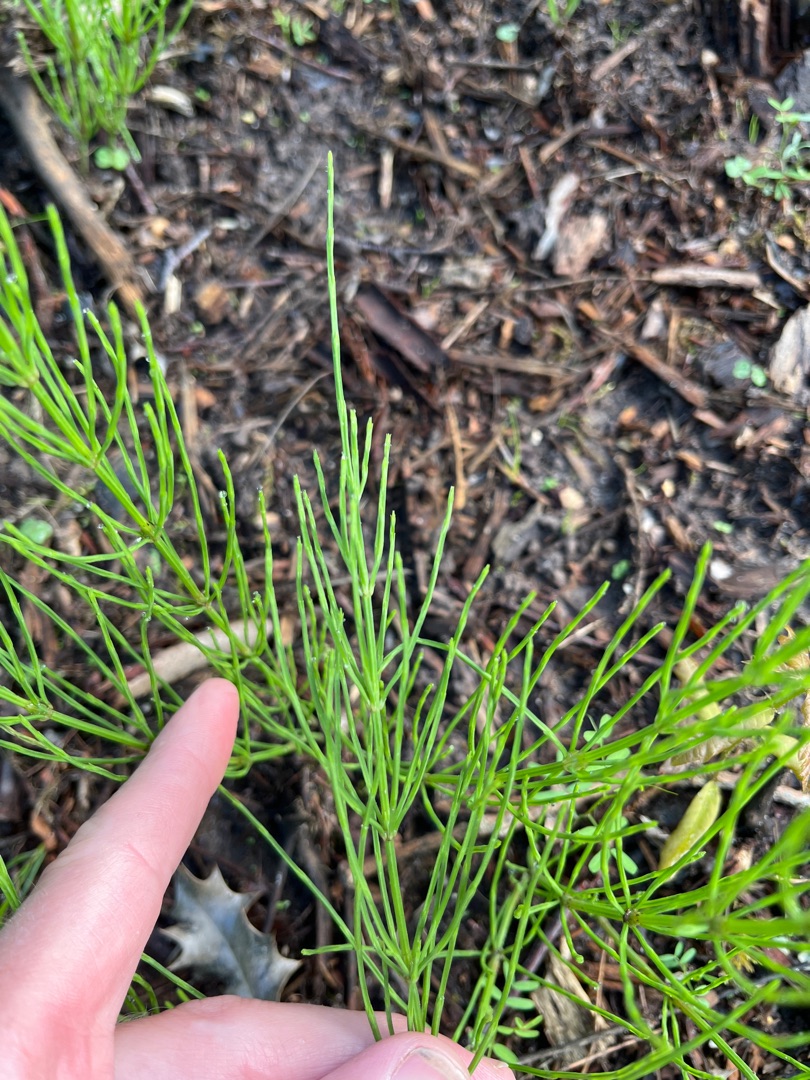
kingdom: Plantae
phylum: Tracheophyta
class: Polypodiopsida
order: Equisetales
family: Equisetaceae
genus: Equisetum
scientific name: Equisetum arvense
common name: Ager-padderok
